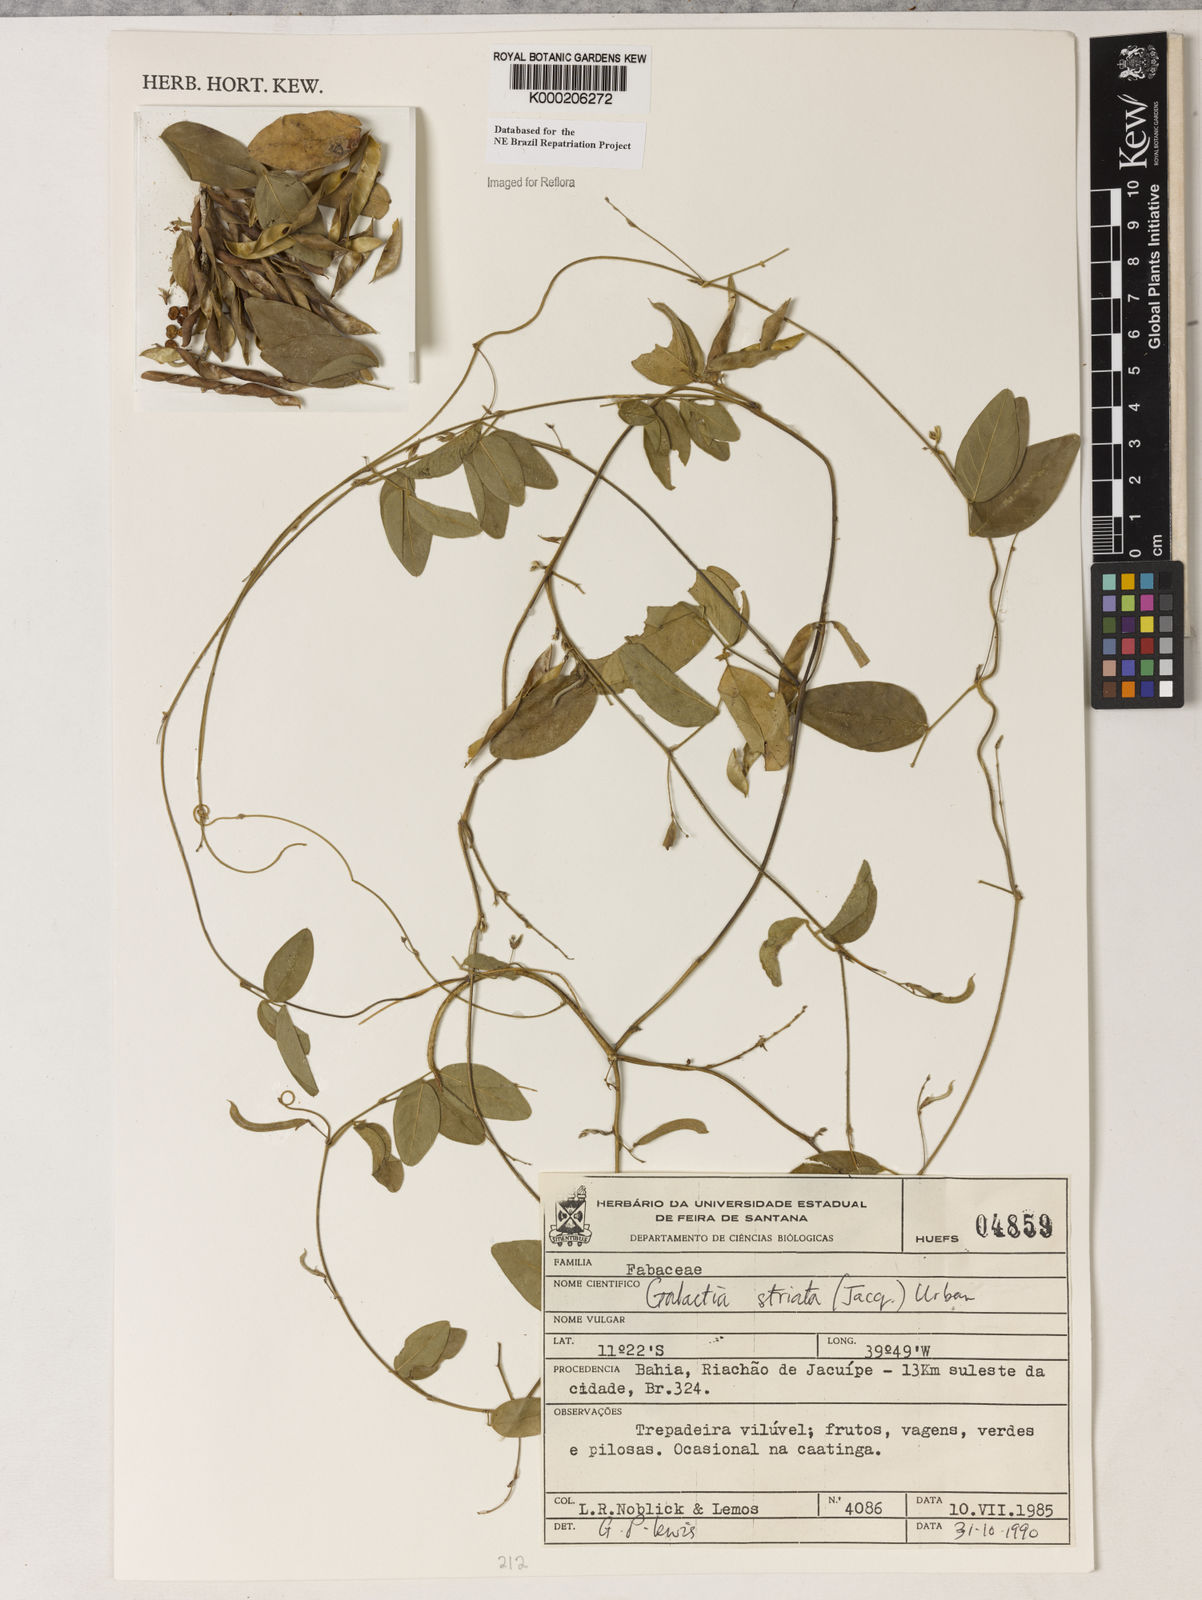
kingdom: Plantae
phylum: Tracheophyta
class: Magnoliopsida
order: Fabales
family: Fabaceae
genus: Galactia
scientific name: Galactia striata
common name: Florida hammock milkpea
